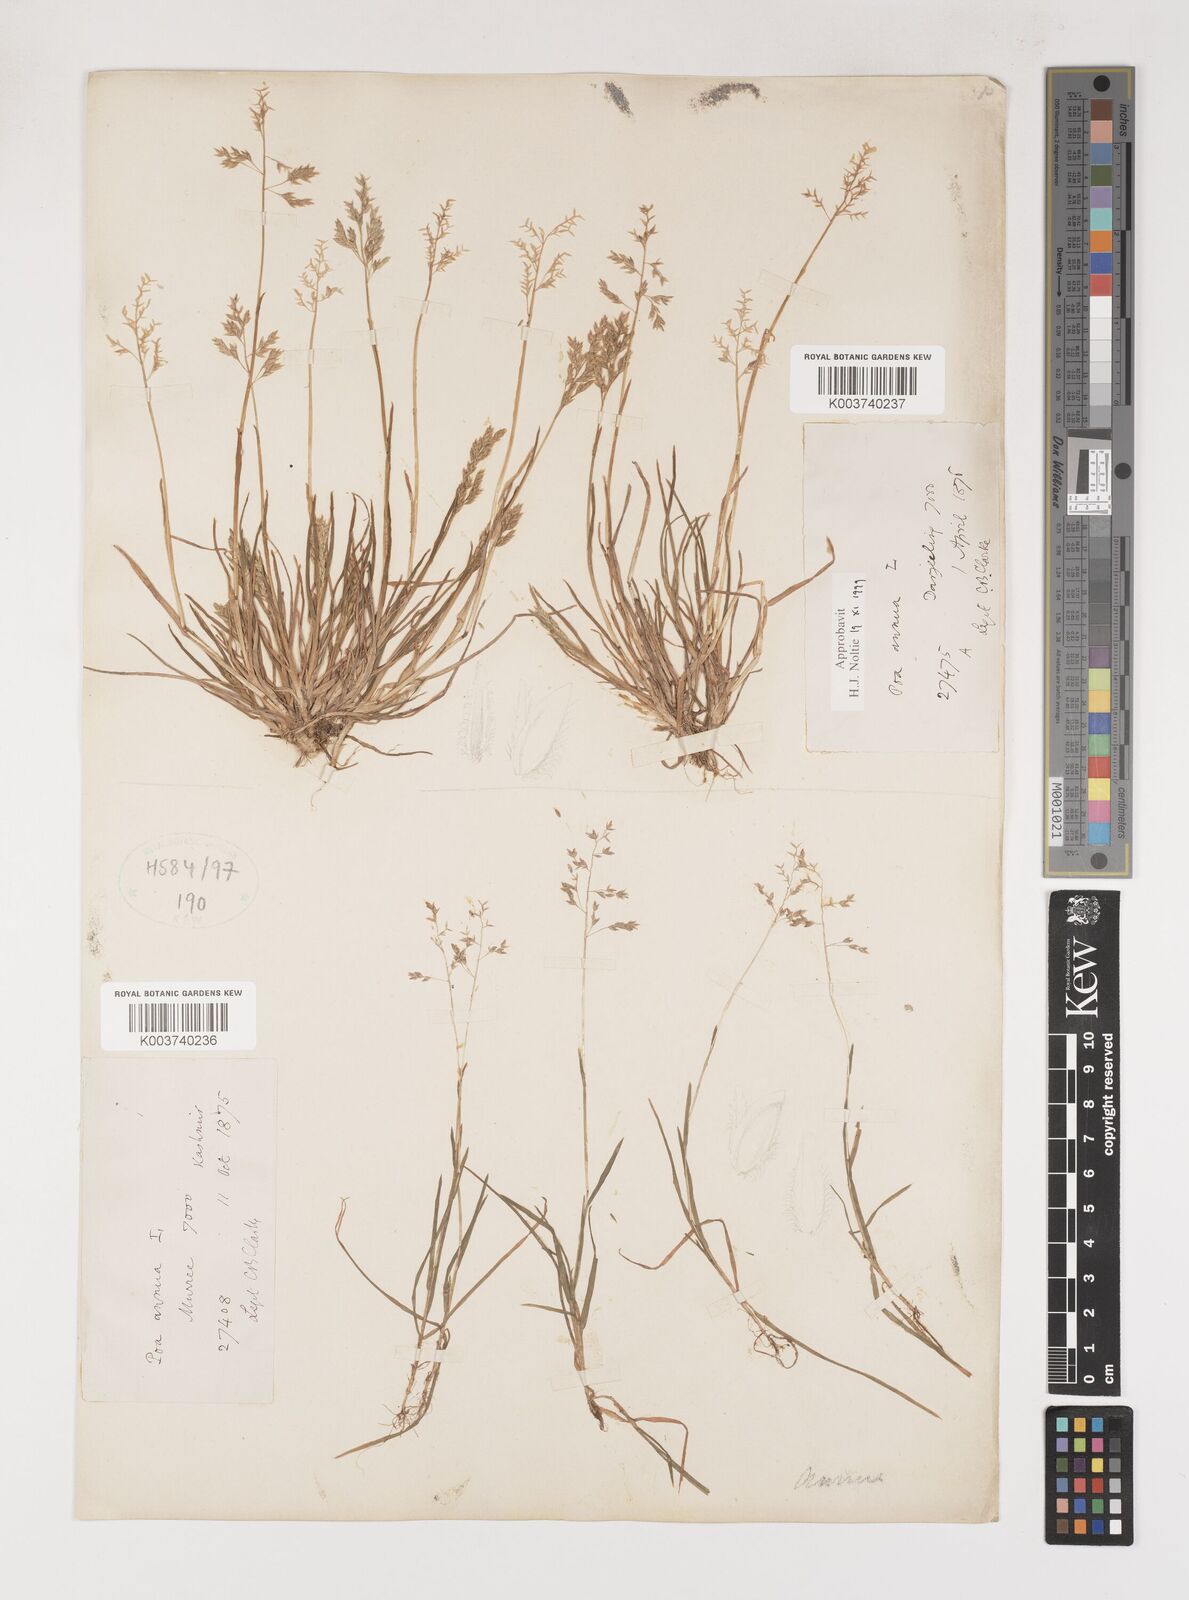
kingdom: Plantae
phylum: Tracheophyta
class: Liliopsida
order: Poales
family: Poaceae
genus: Poa
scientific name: Poa annua
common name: Annual bluegrass
